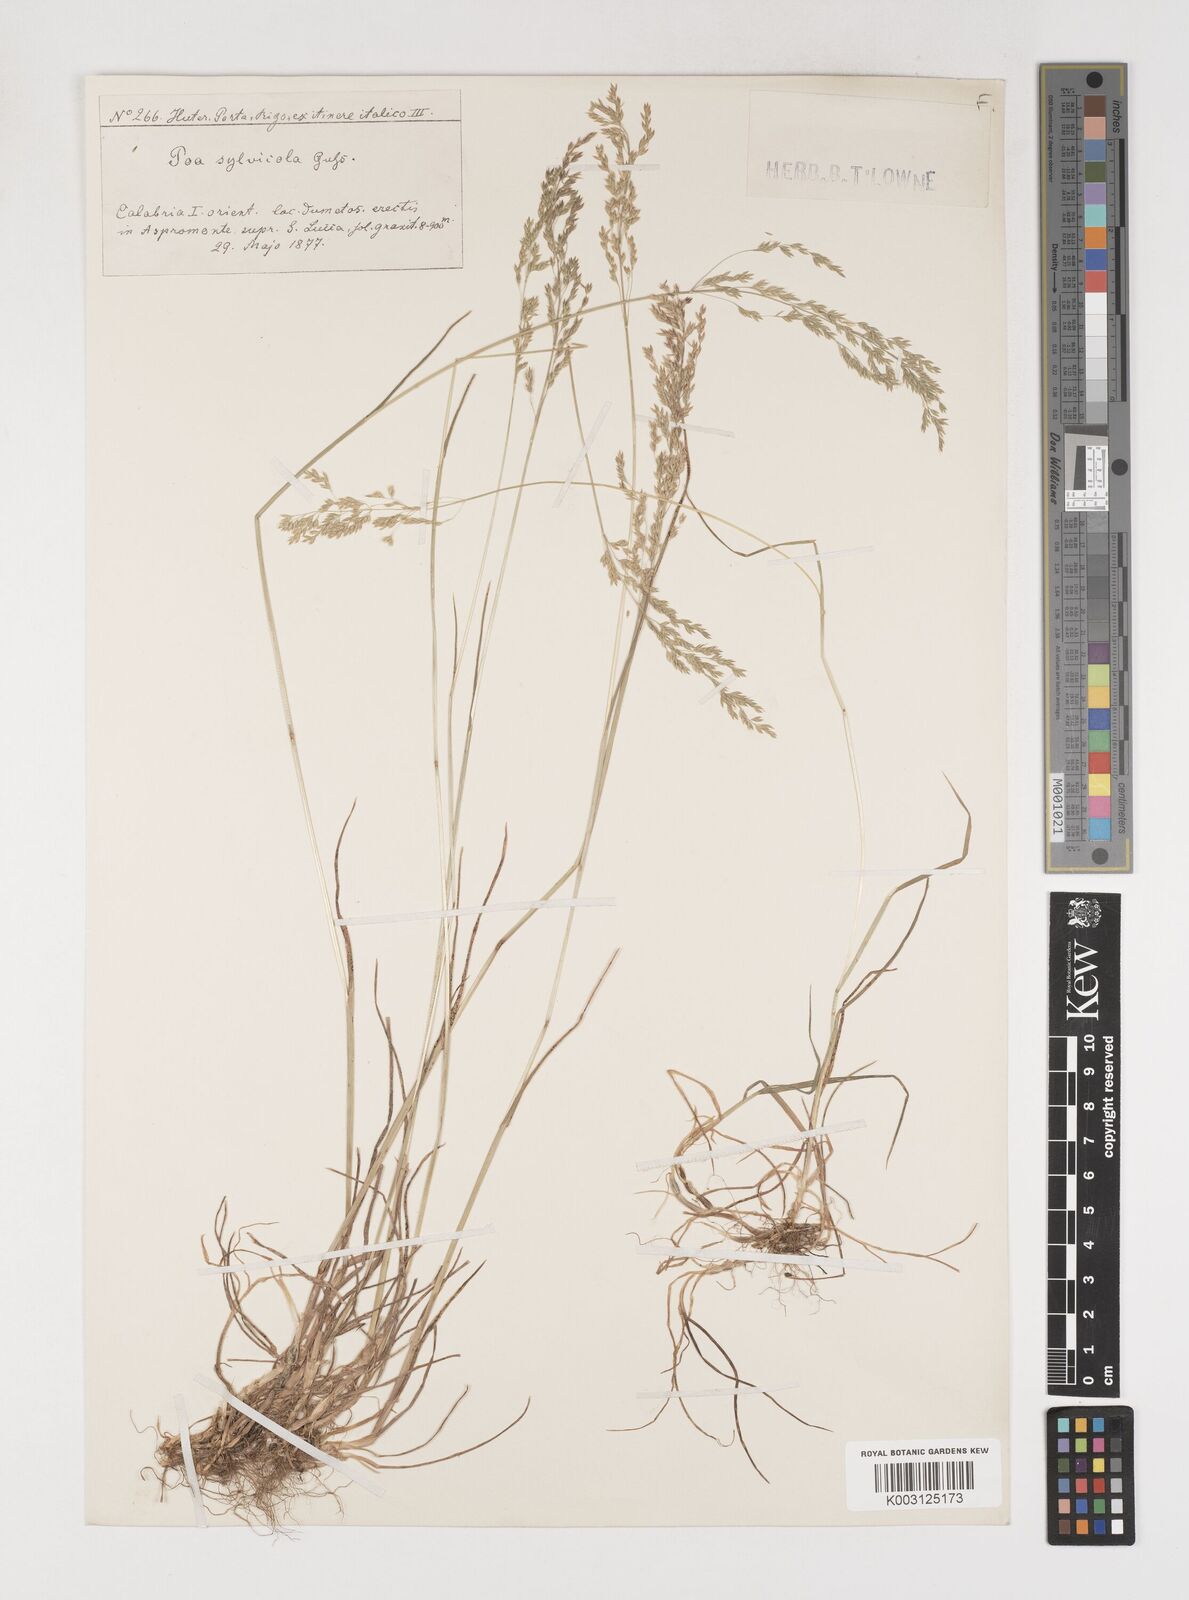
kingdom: Plantae
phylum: Tracheophyta
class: Liliopsida
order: Poales
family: Poaceae
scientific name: Poaceae
